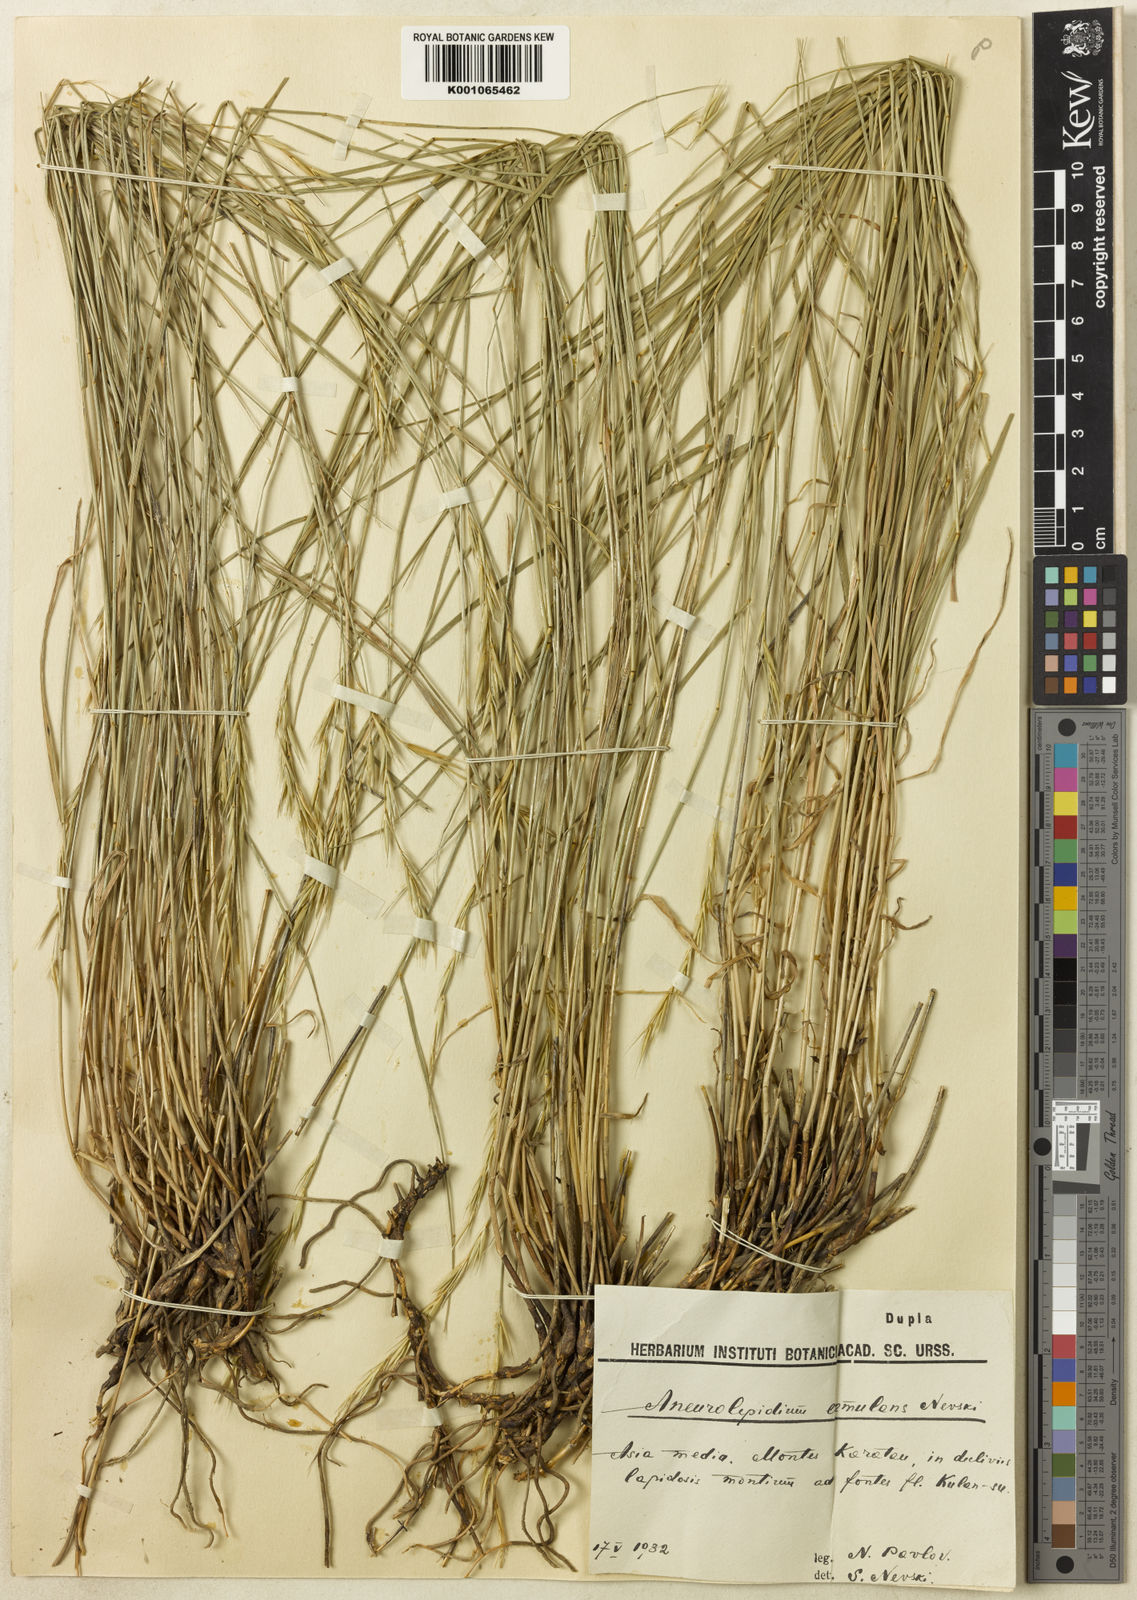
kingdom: Plantae
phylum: Tracheophyta
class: Liliopsida
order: Poales
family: Poaceae
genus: Leymus
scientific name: Leymus aemulans
